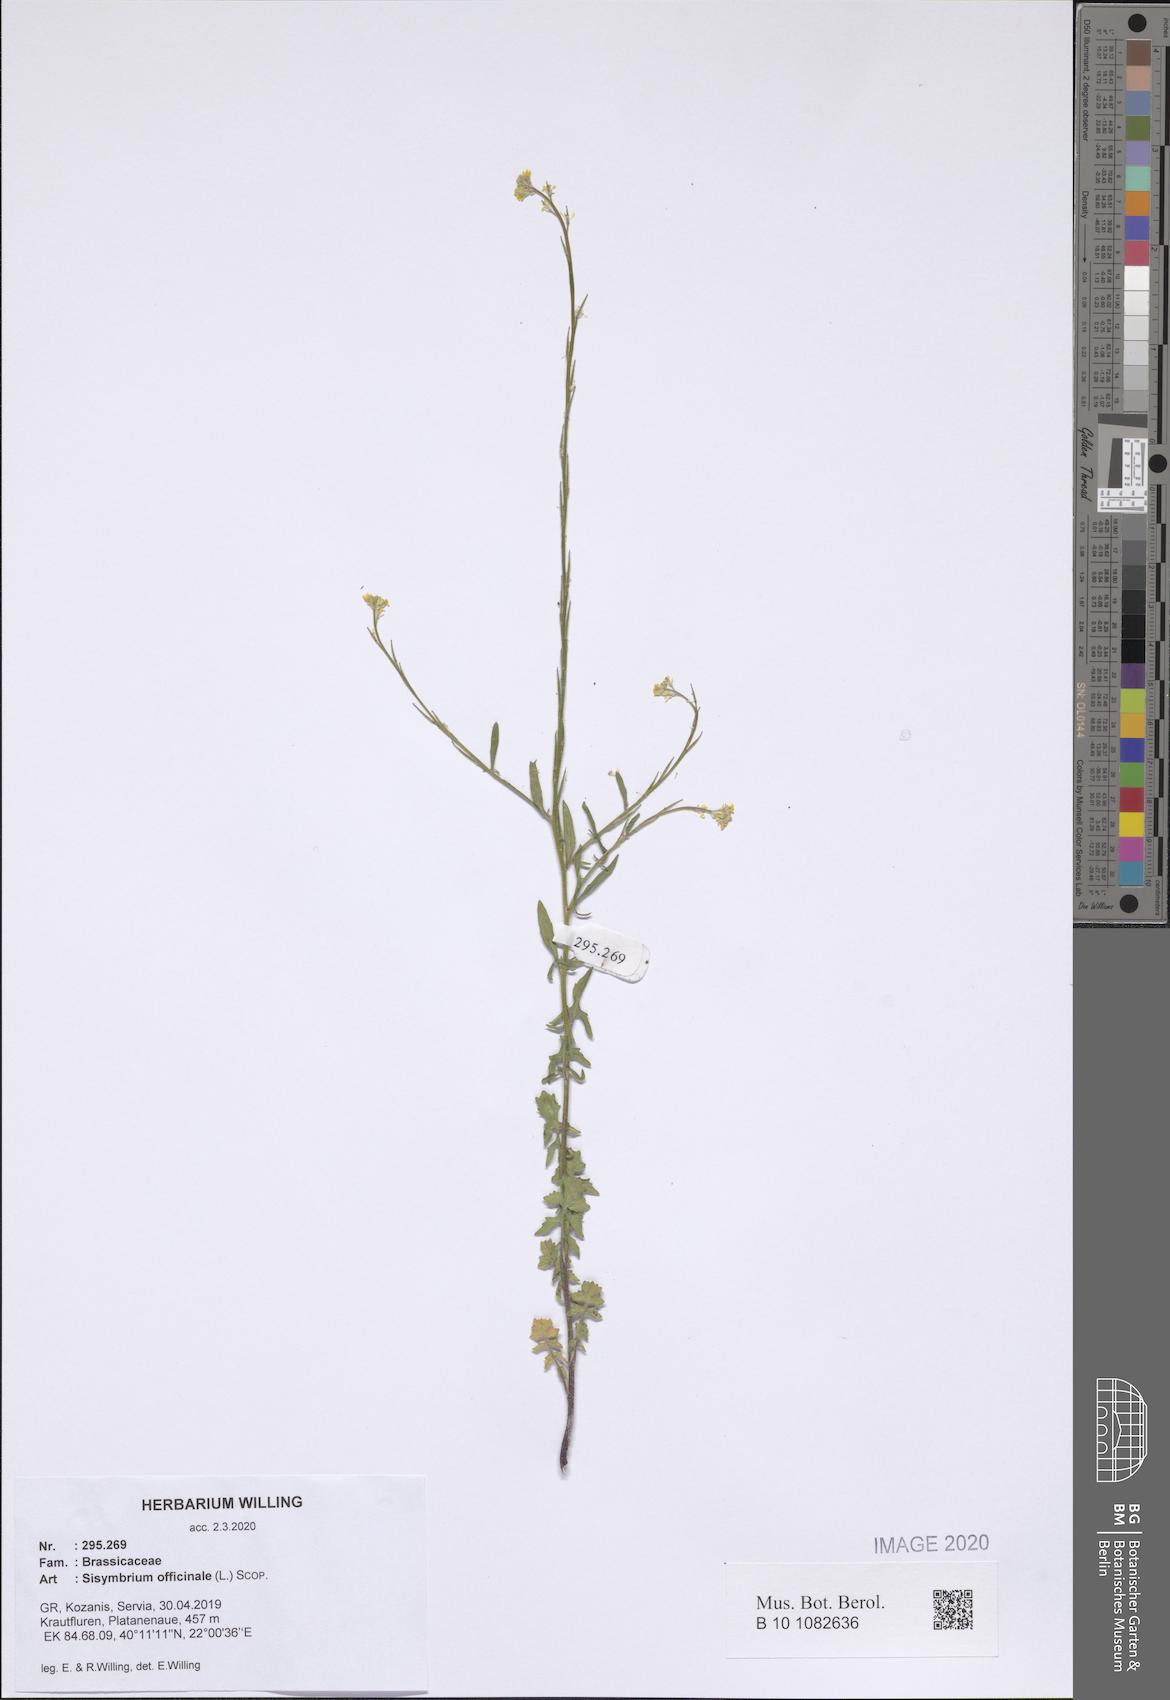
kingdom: Plantae
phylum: Tracheophyta
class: Magnoliopsida
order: Brassicales
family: Brassicaceae
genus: Sisymbrium
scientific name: Sisymbrium officinale
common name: Hedge mustard
